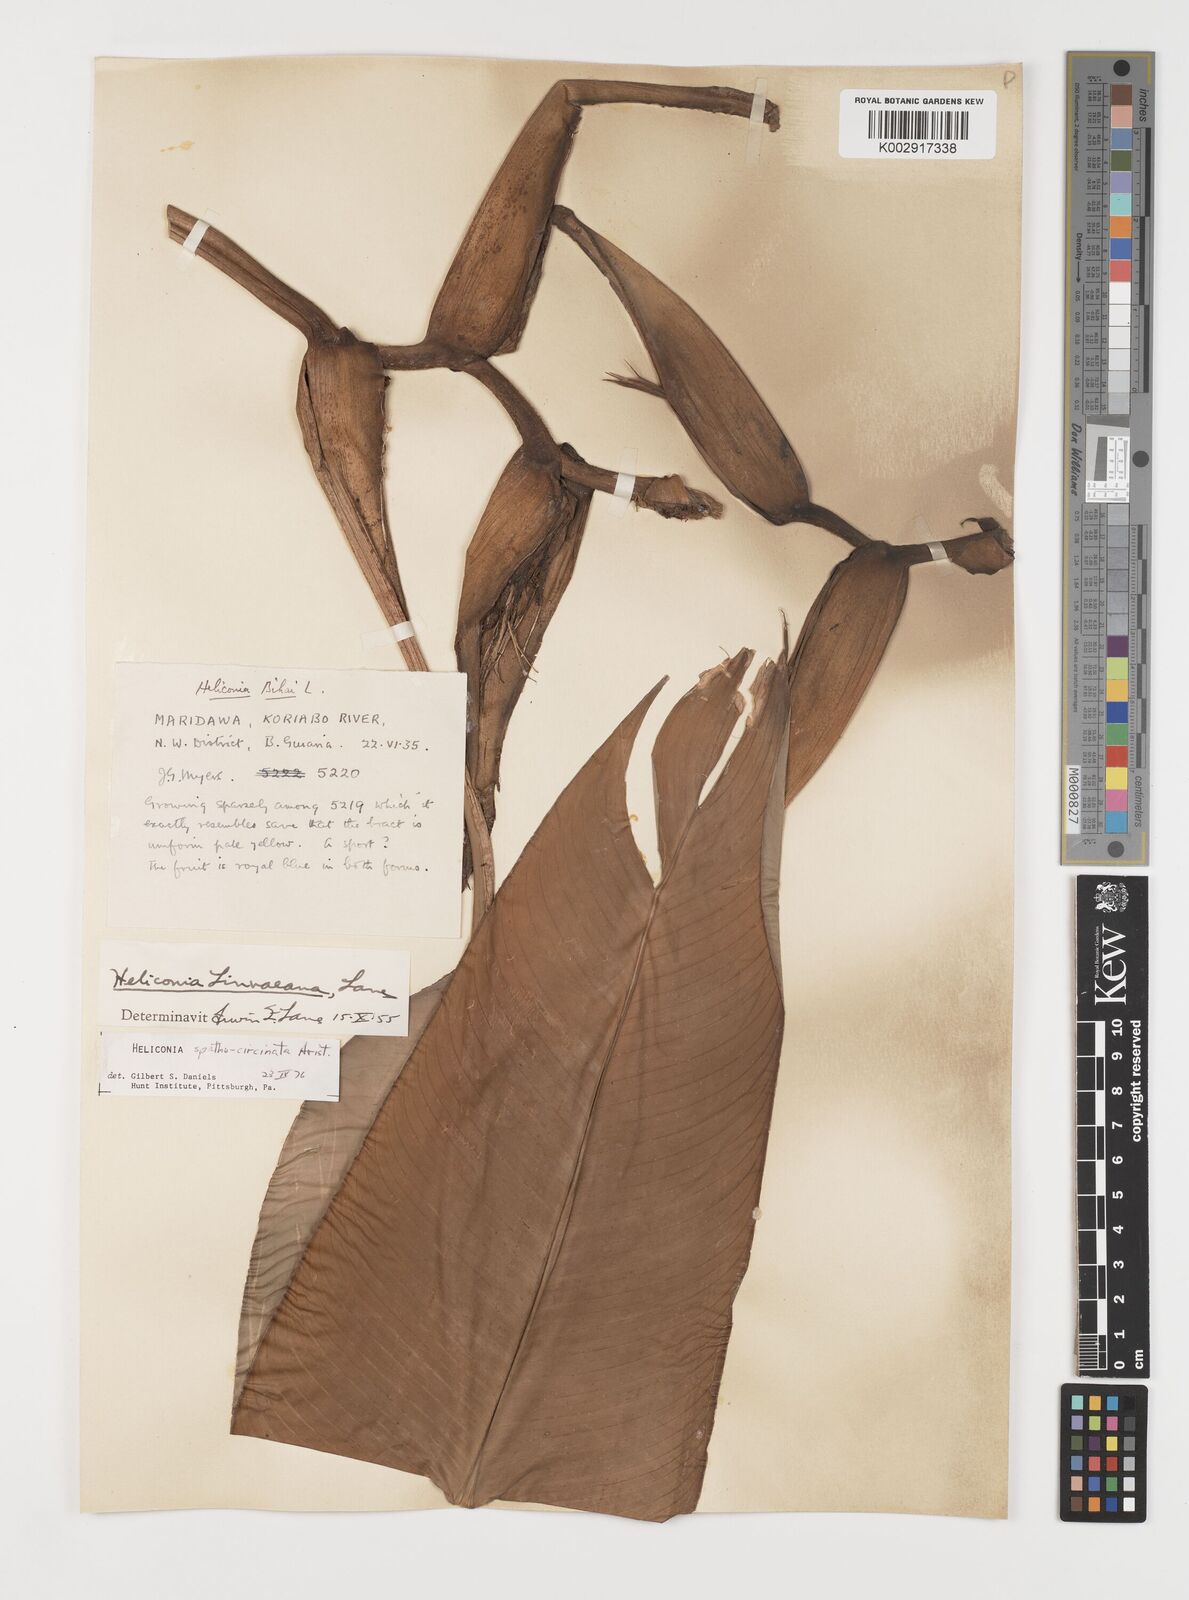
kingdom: Plantae
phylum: Tracheophyta
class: Liliopsida
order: Zingiberales
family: Heliconiaceae
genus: Heliconia
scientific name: Heliconia spathocircinata
